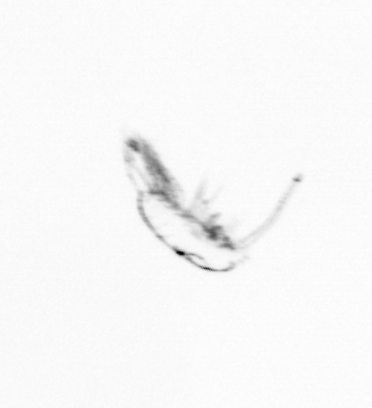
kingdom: Animalia
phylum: Arthropoda
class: Copepoda
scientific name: Copepoda
